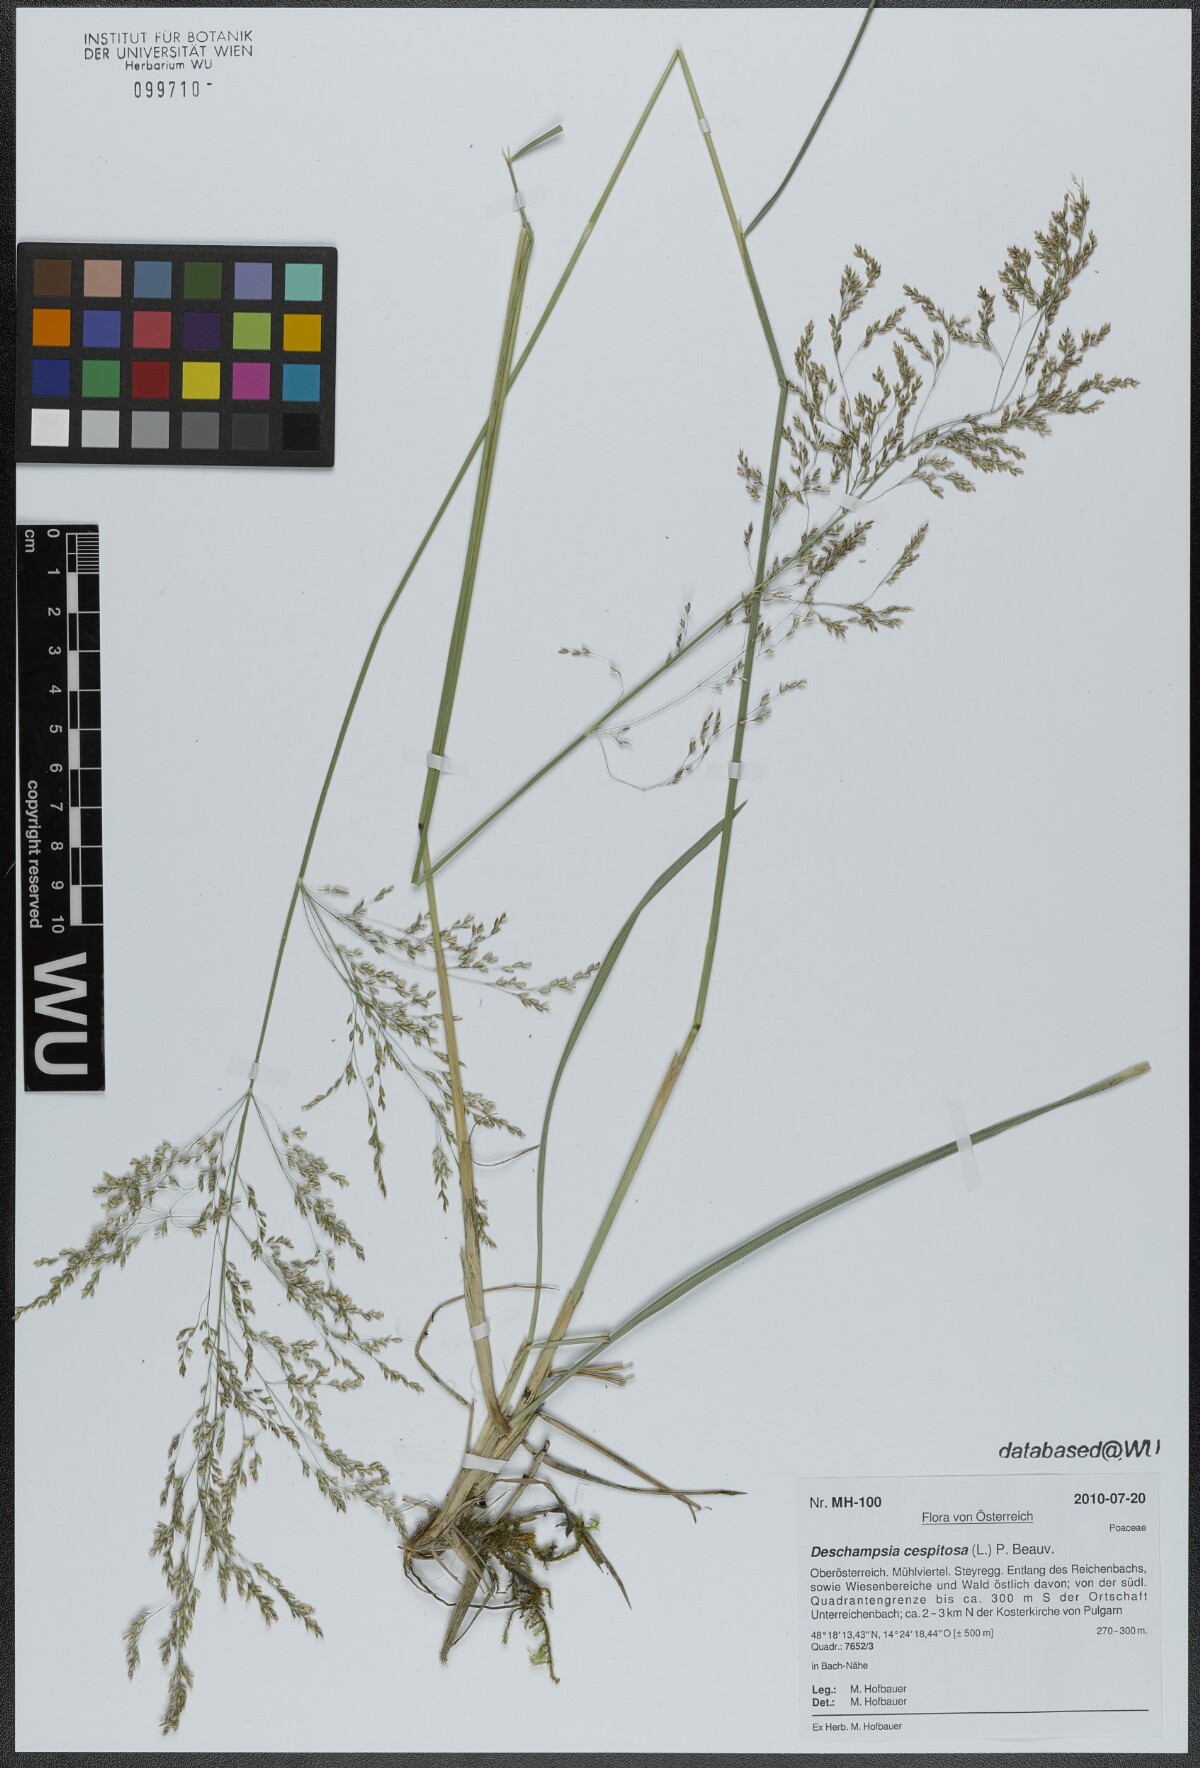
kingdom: Plantae
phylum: Tracheophyta
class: Liliopsida
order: Poales
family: Poaceae
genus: Deschampsia
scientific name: Deschampsia cespitosa
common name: Tufted hair-grass
